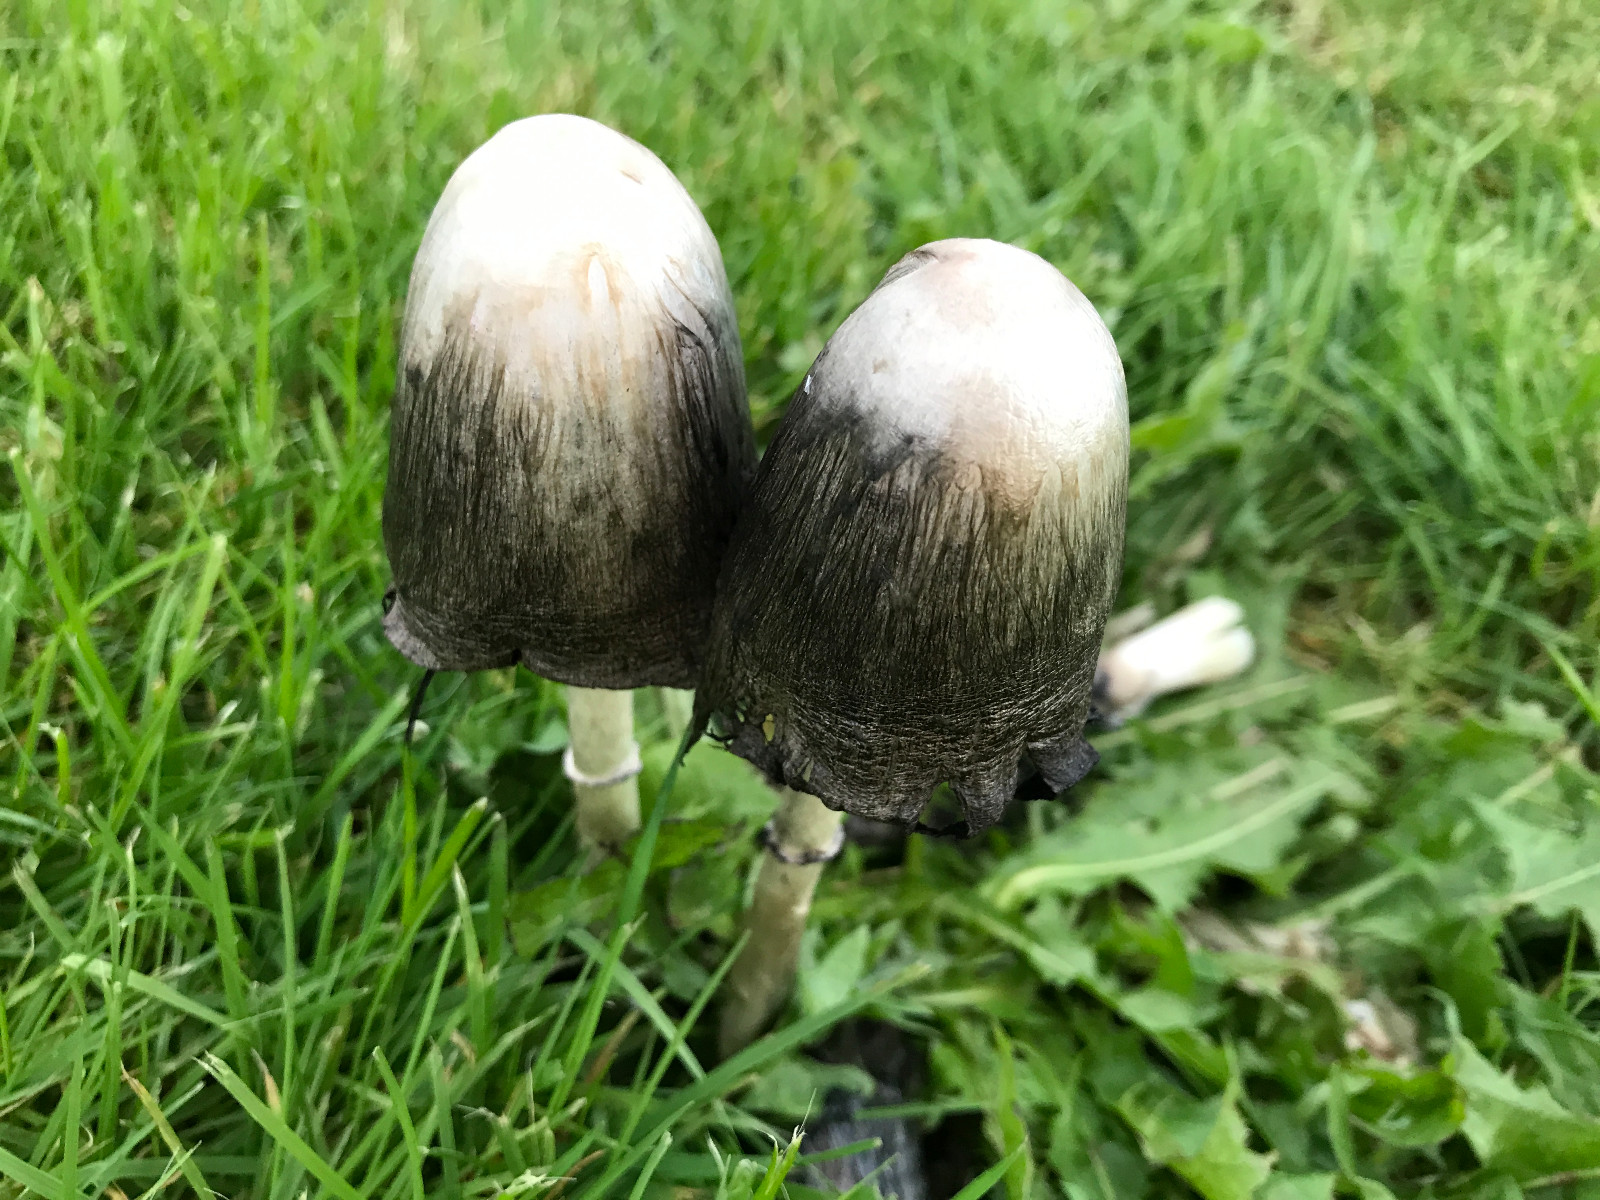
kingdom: Fungi
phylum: Basidiomycota
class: Agaricomycetes
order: Agaricales
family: Agaricaceae
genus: Coprinus
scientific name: Coprinus comatus
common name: stor parykhat
